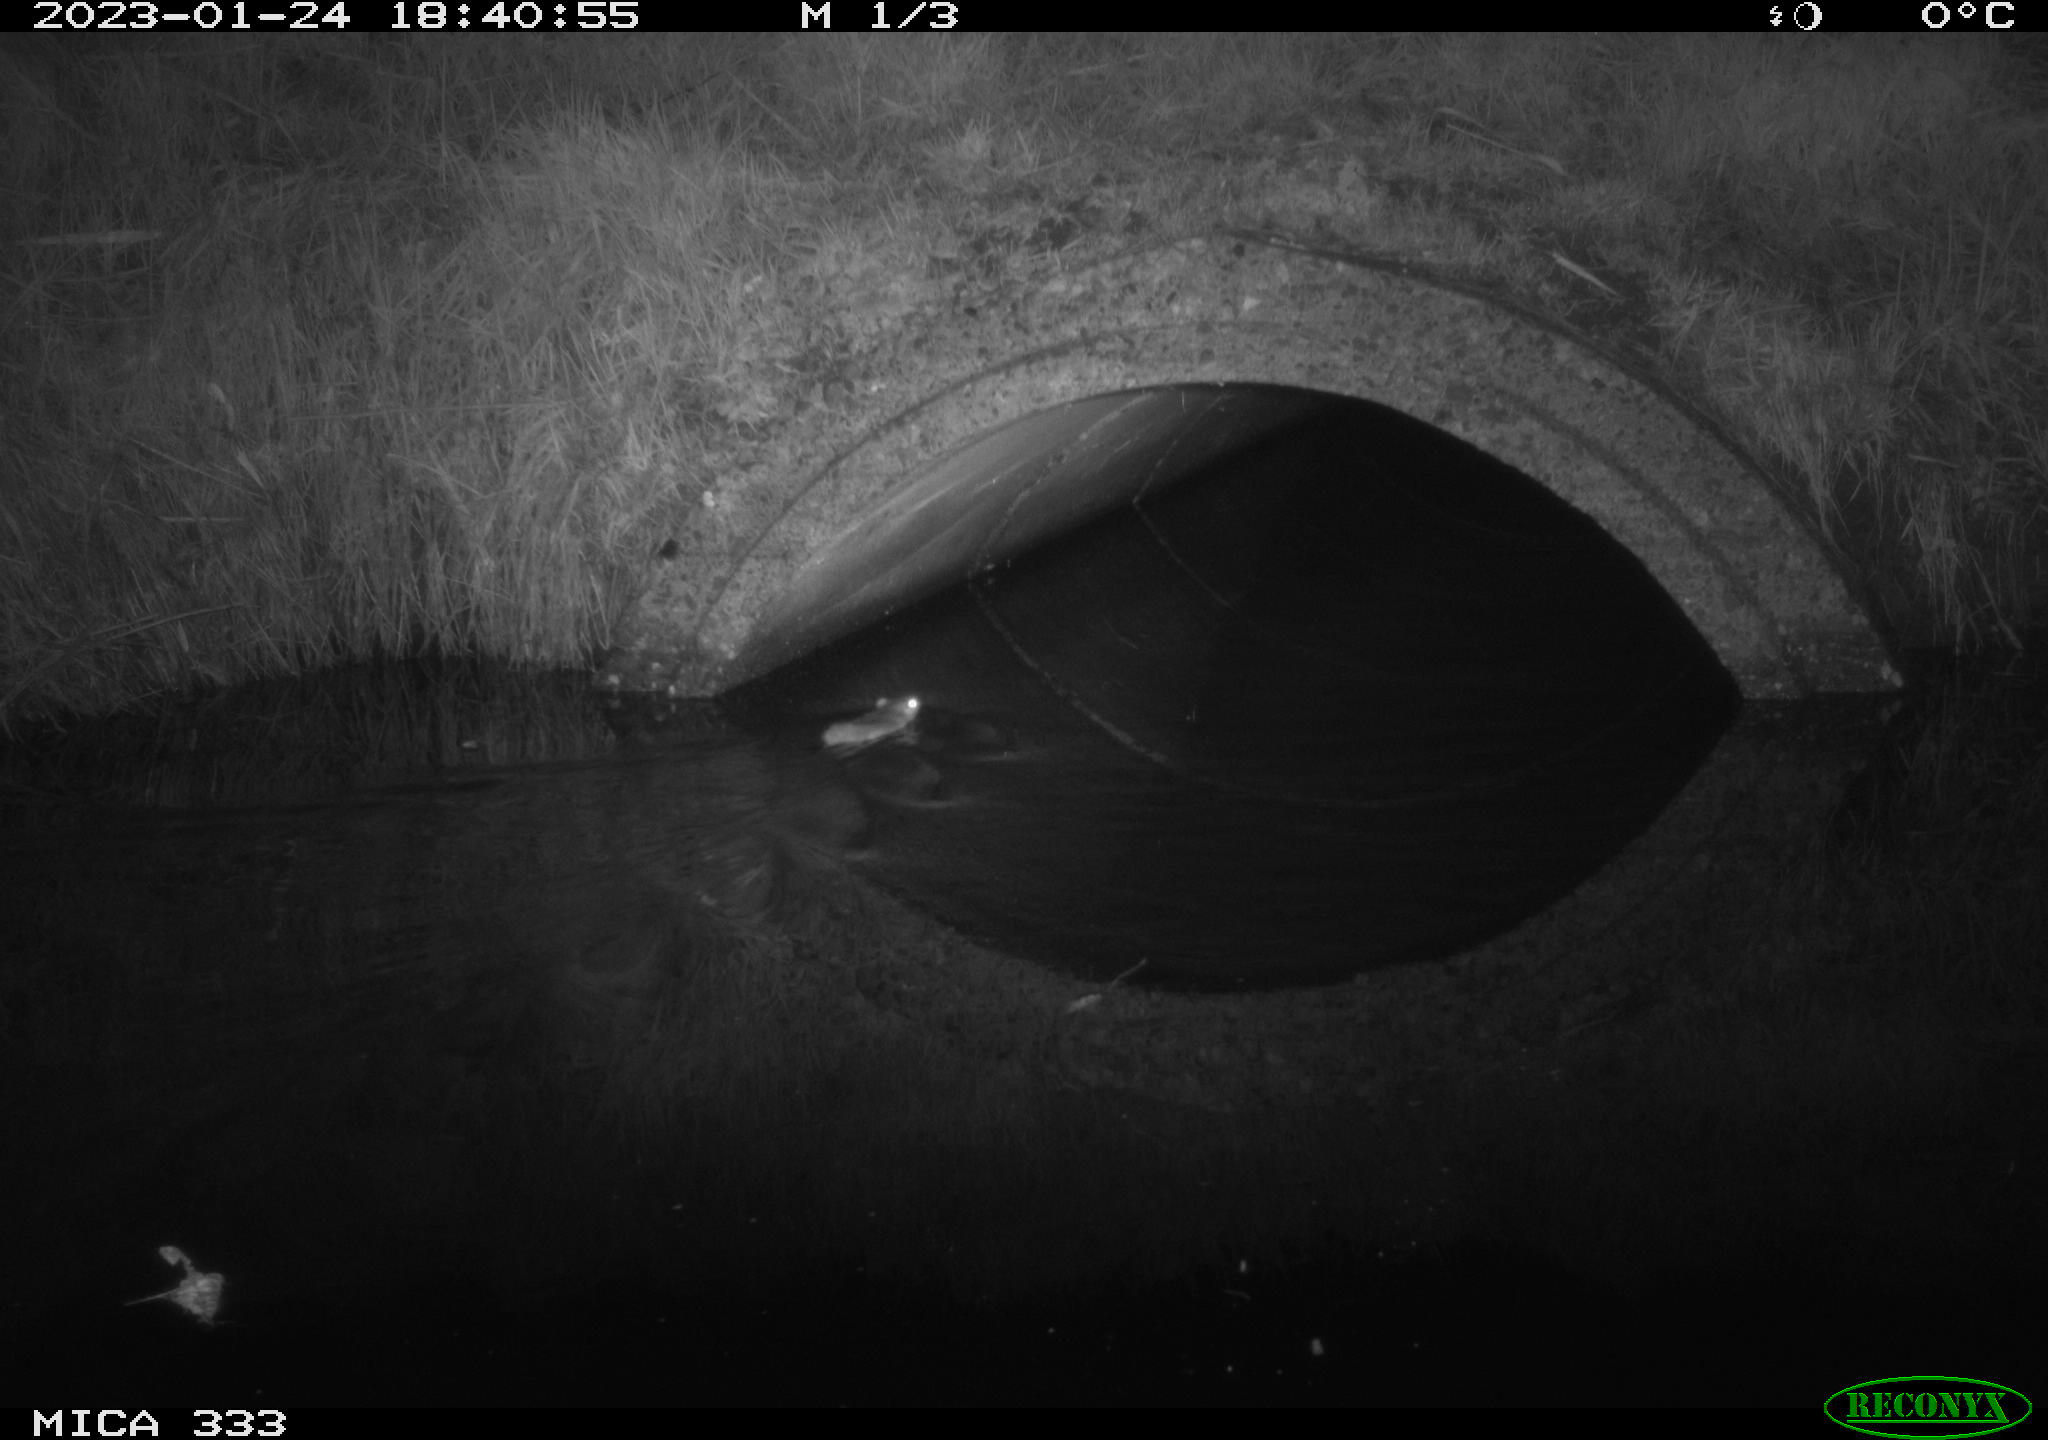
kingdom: Animalia
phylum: Chordata
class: Mammalia
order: Rodentia
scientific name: Rodentia
